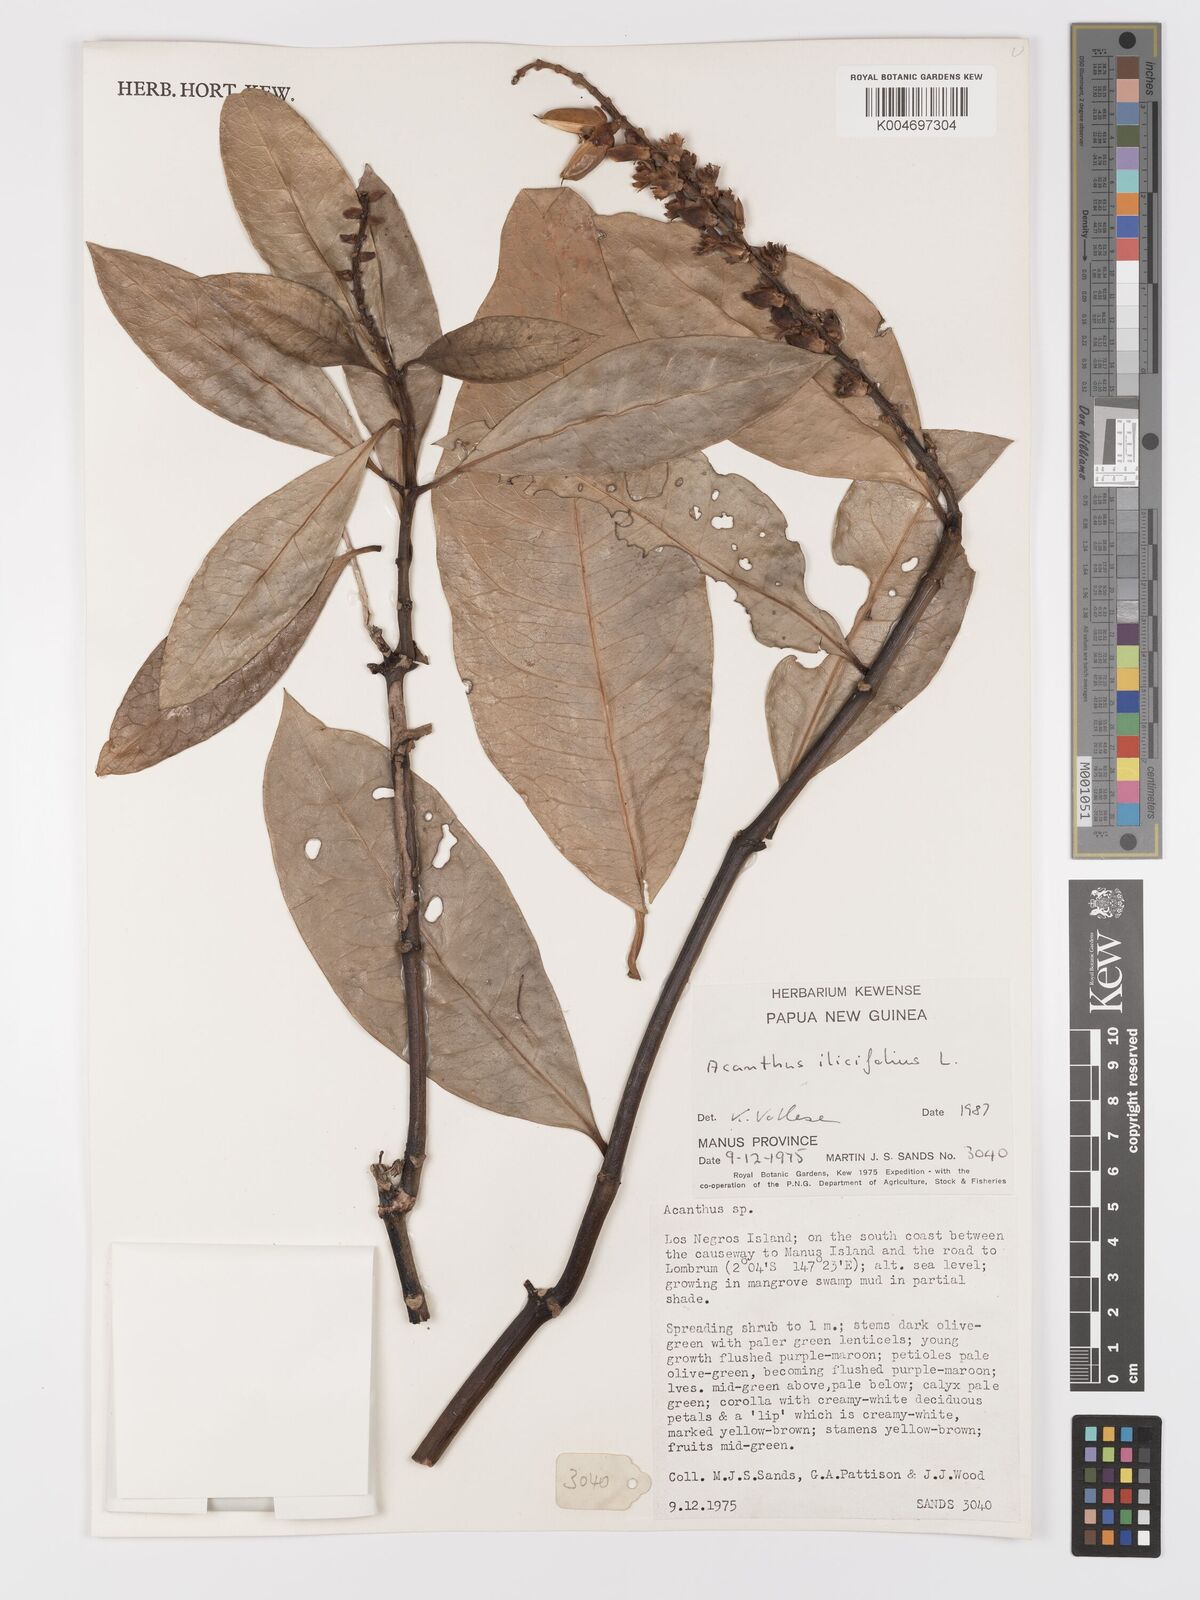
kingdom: Plantae
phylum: Tracheophyta
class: Magnoliopsida
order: Lamiales
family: Acanthaceae
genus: Acanthus
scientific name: Acanthus ilicifolius
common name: Holy mangrove
